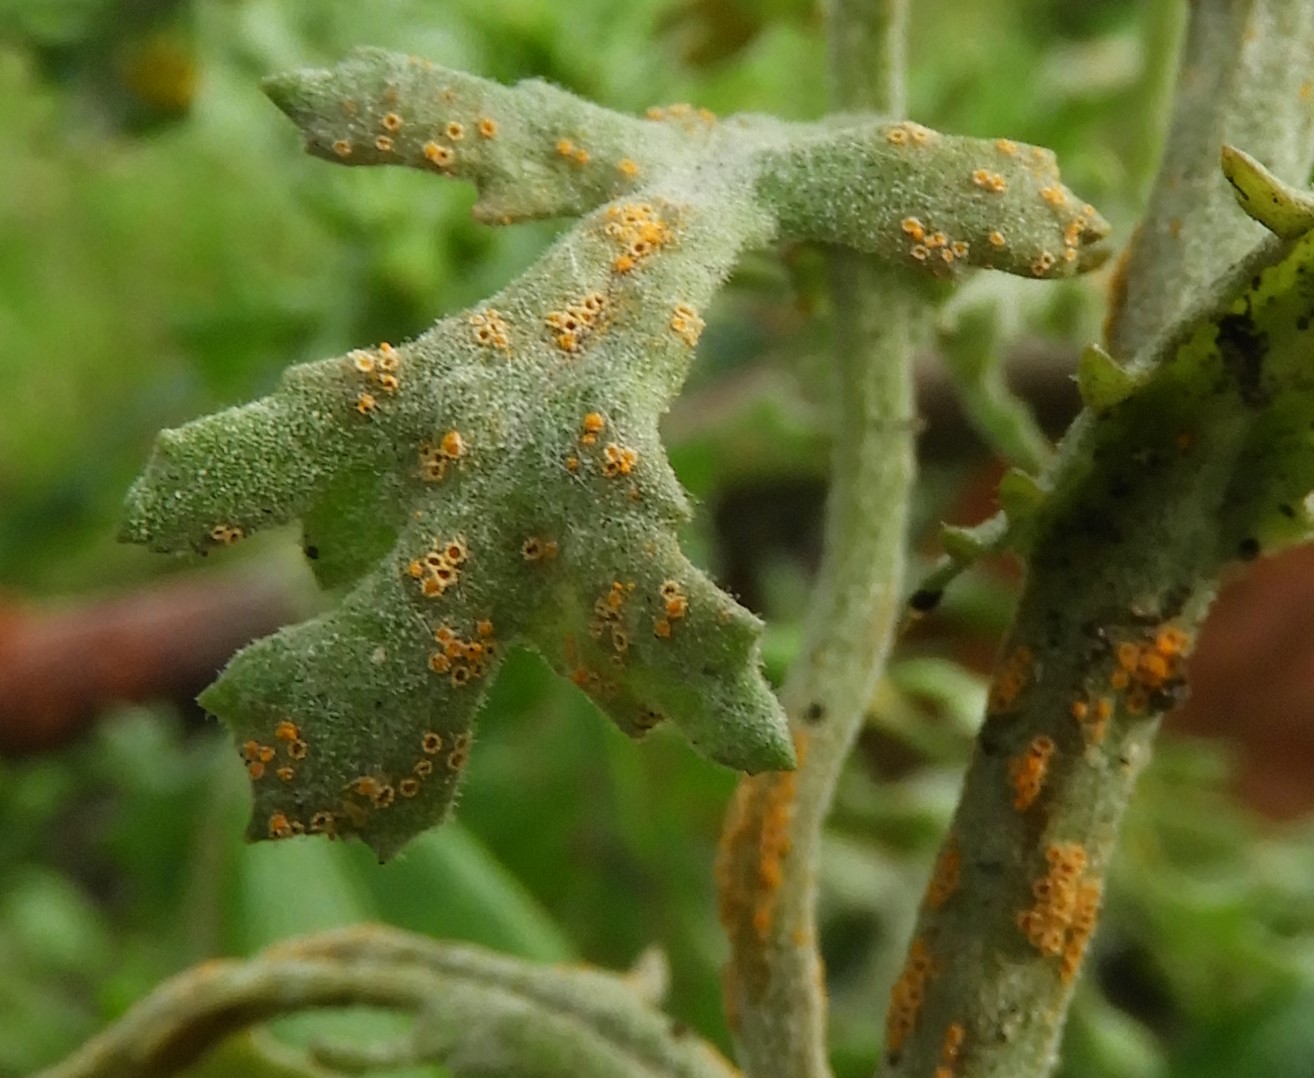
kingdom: Fungi
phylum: Basidiomycota
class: Pucciniomycetes
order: Pucciniales
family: Pucciniaceae
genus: Puccinia
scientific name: Puccinia lagenophorae
